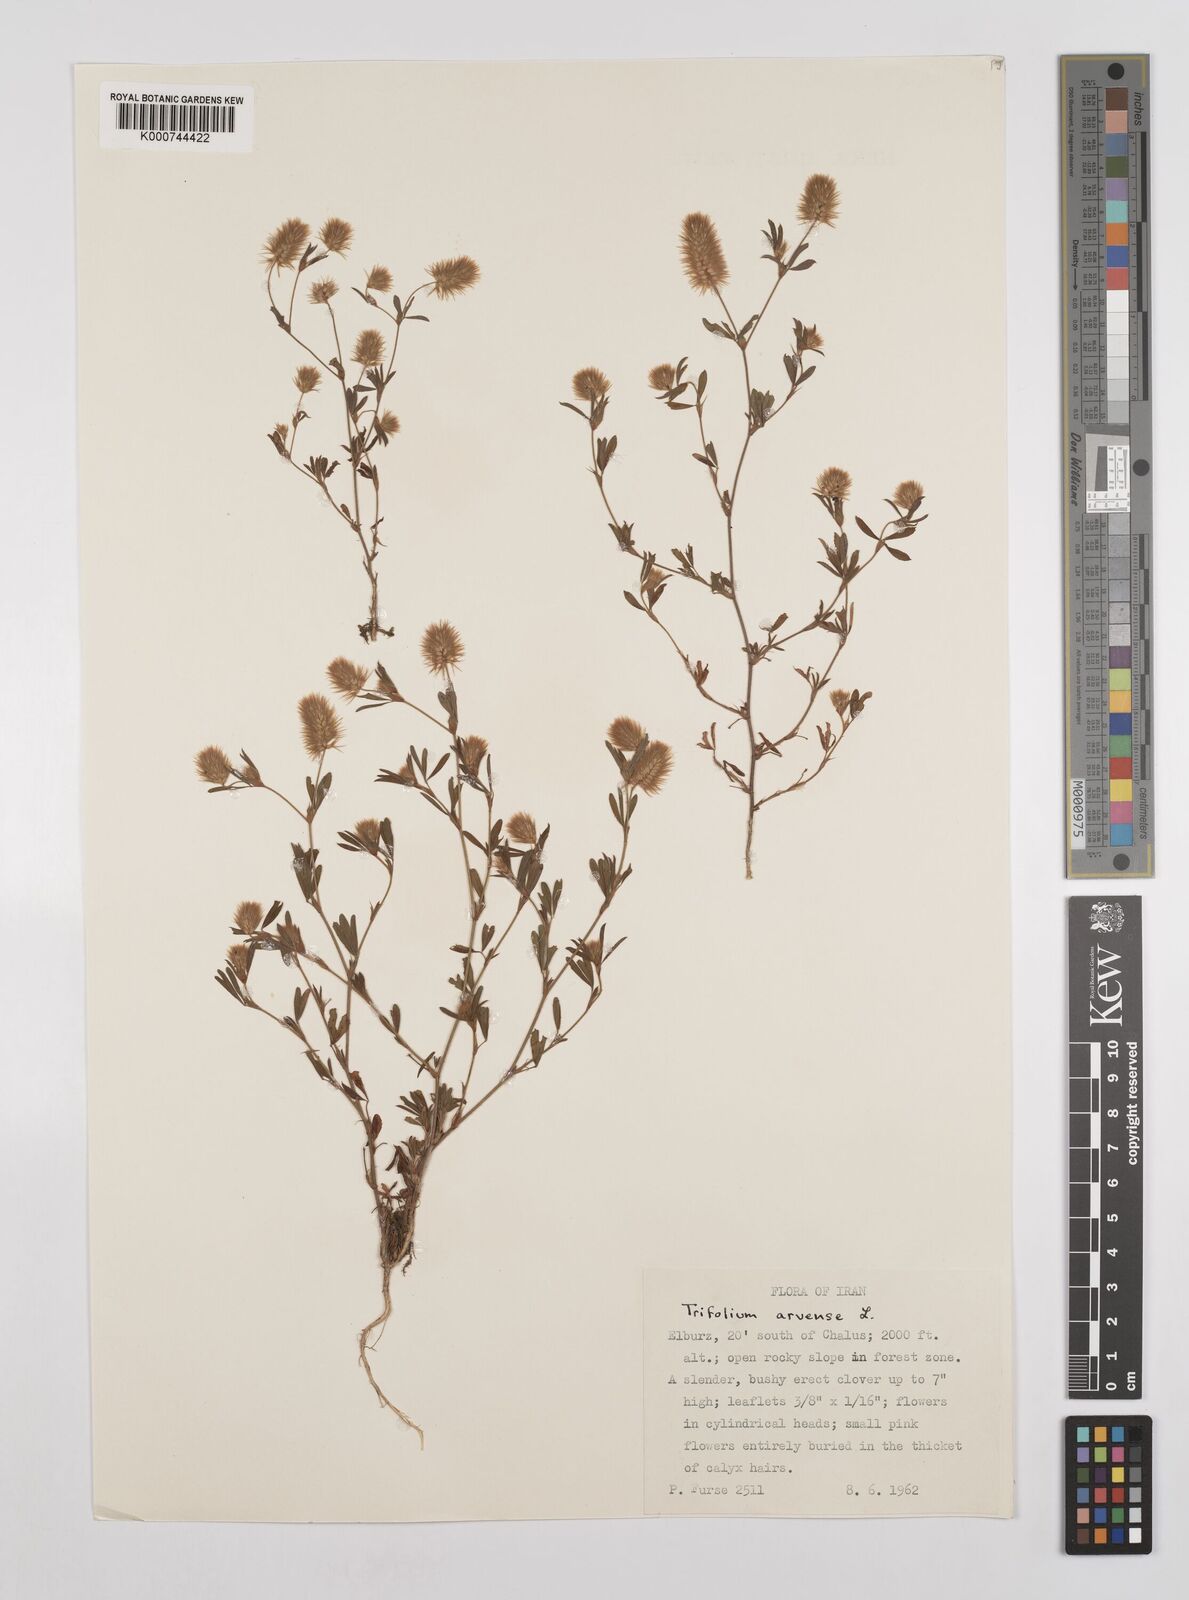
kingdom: Plantae
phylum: Tracheophyta
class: Magnoliopsida
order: Fabales
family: Fabaceae
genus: Trifolium
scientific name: Trifolium arvense
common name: Hare's-foot clover
